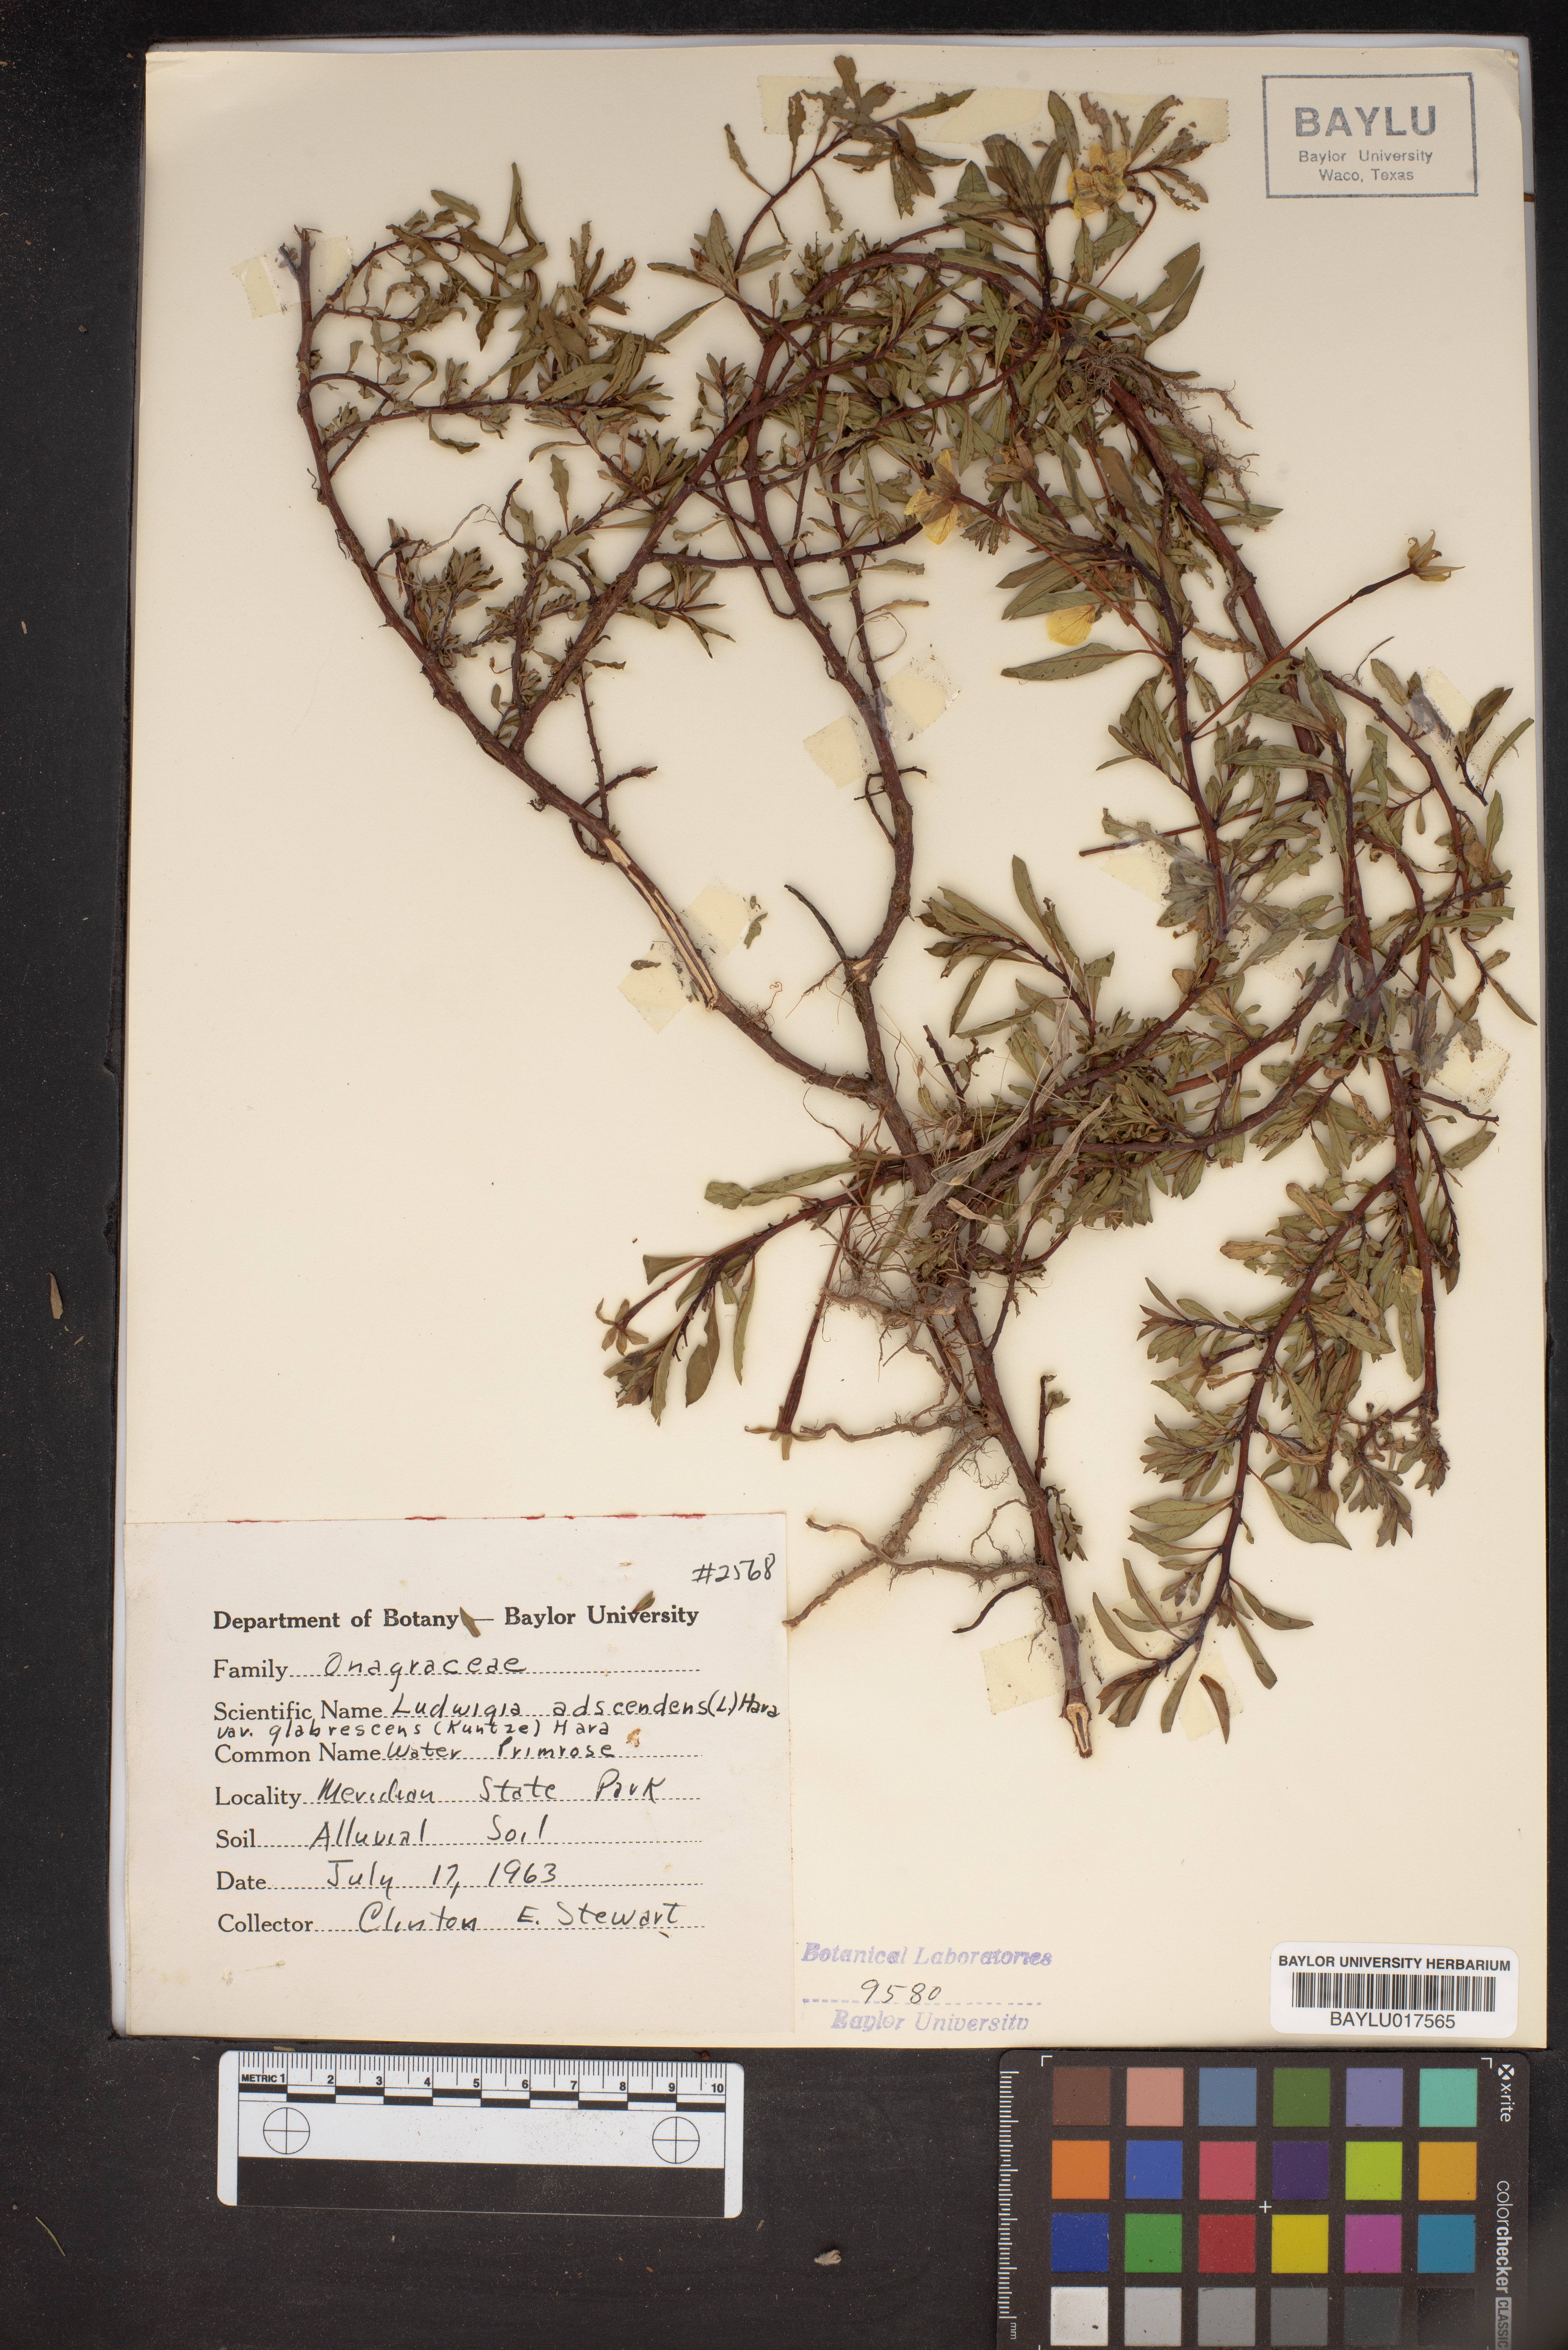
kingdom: Plantae
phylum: Tracheophyta
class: Magnoliopsida
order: Myrtales
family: Onagraceae
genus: Ludwigia
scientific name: Ludwigia peploides
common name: Floating primrose-willow
